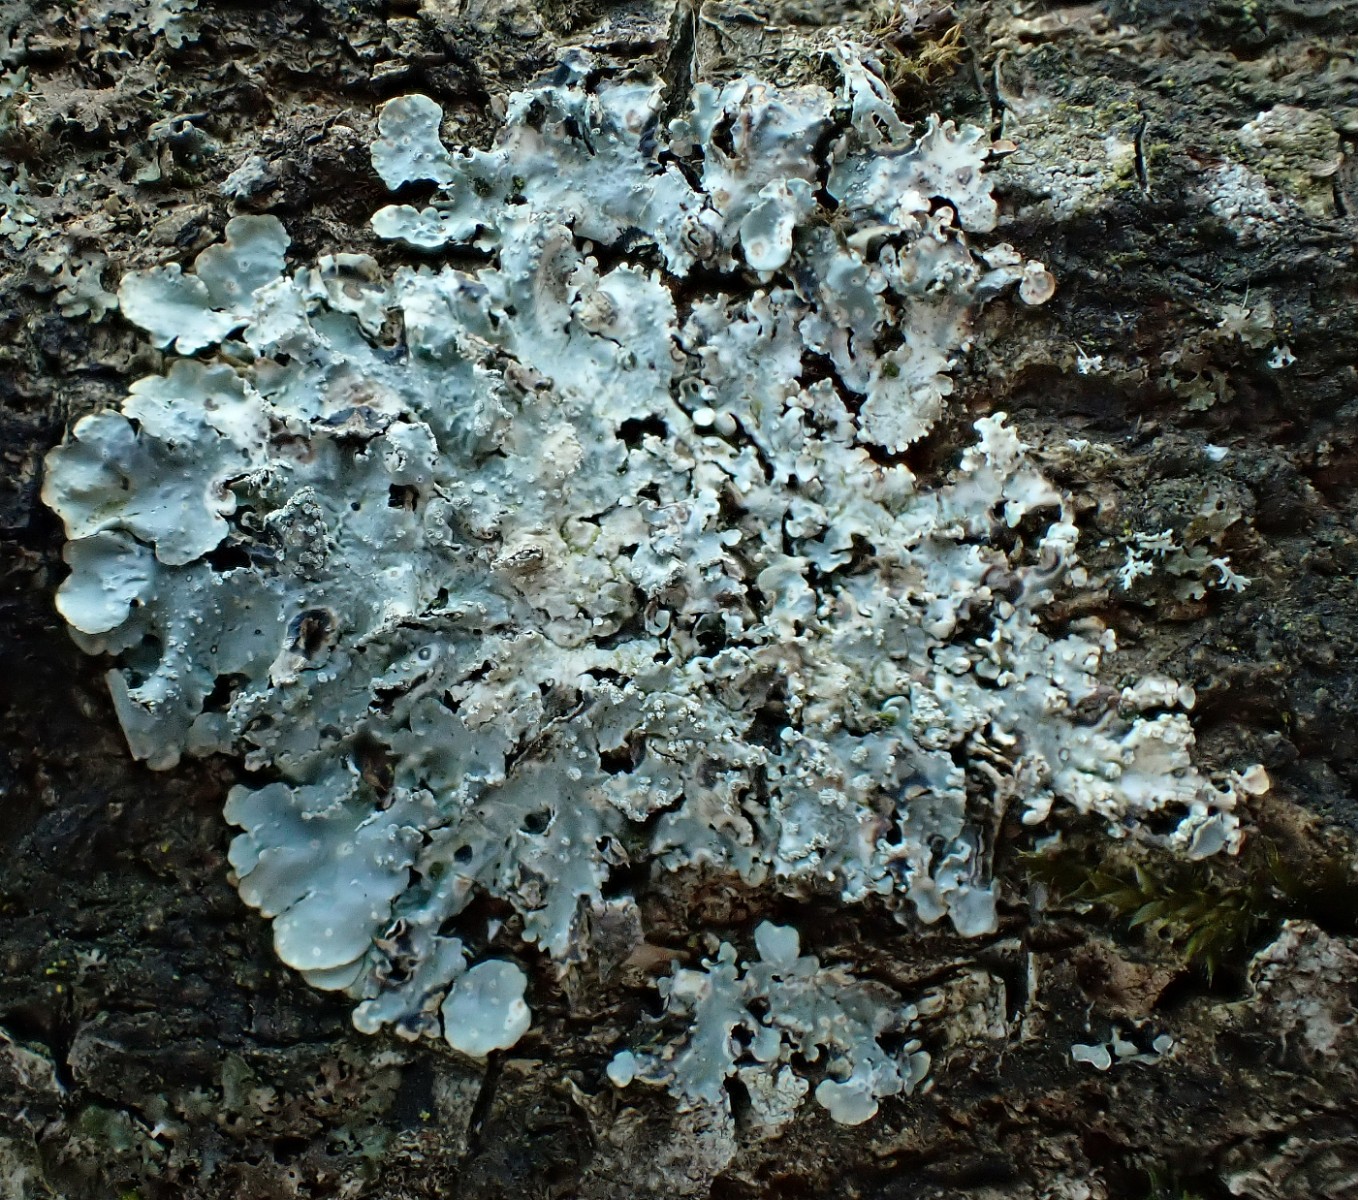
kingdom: Fungi
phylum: Ascomycota
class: Lecanoromycetes
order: Lecanorales
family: Parmeliaceae
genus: Punctelia
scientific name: Punctelia subrudecta
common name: punkt-skållav
